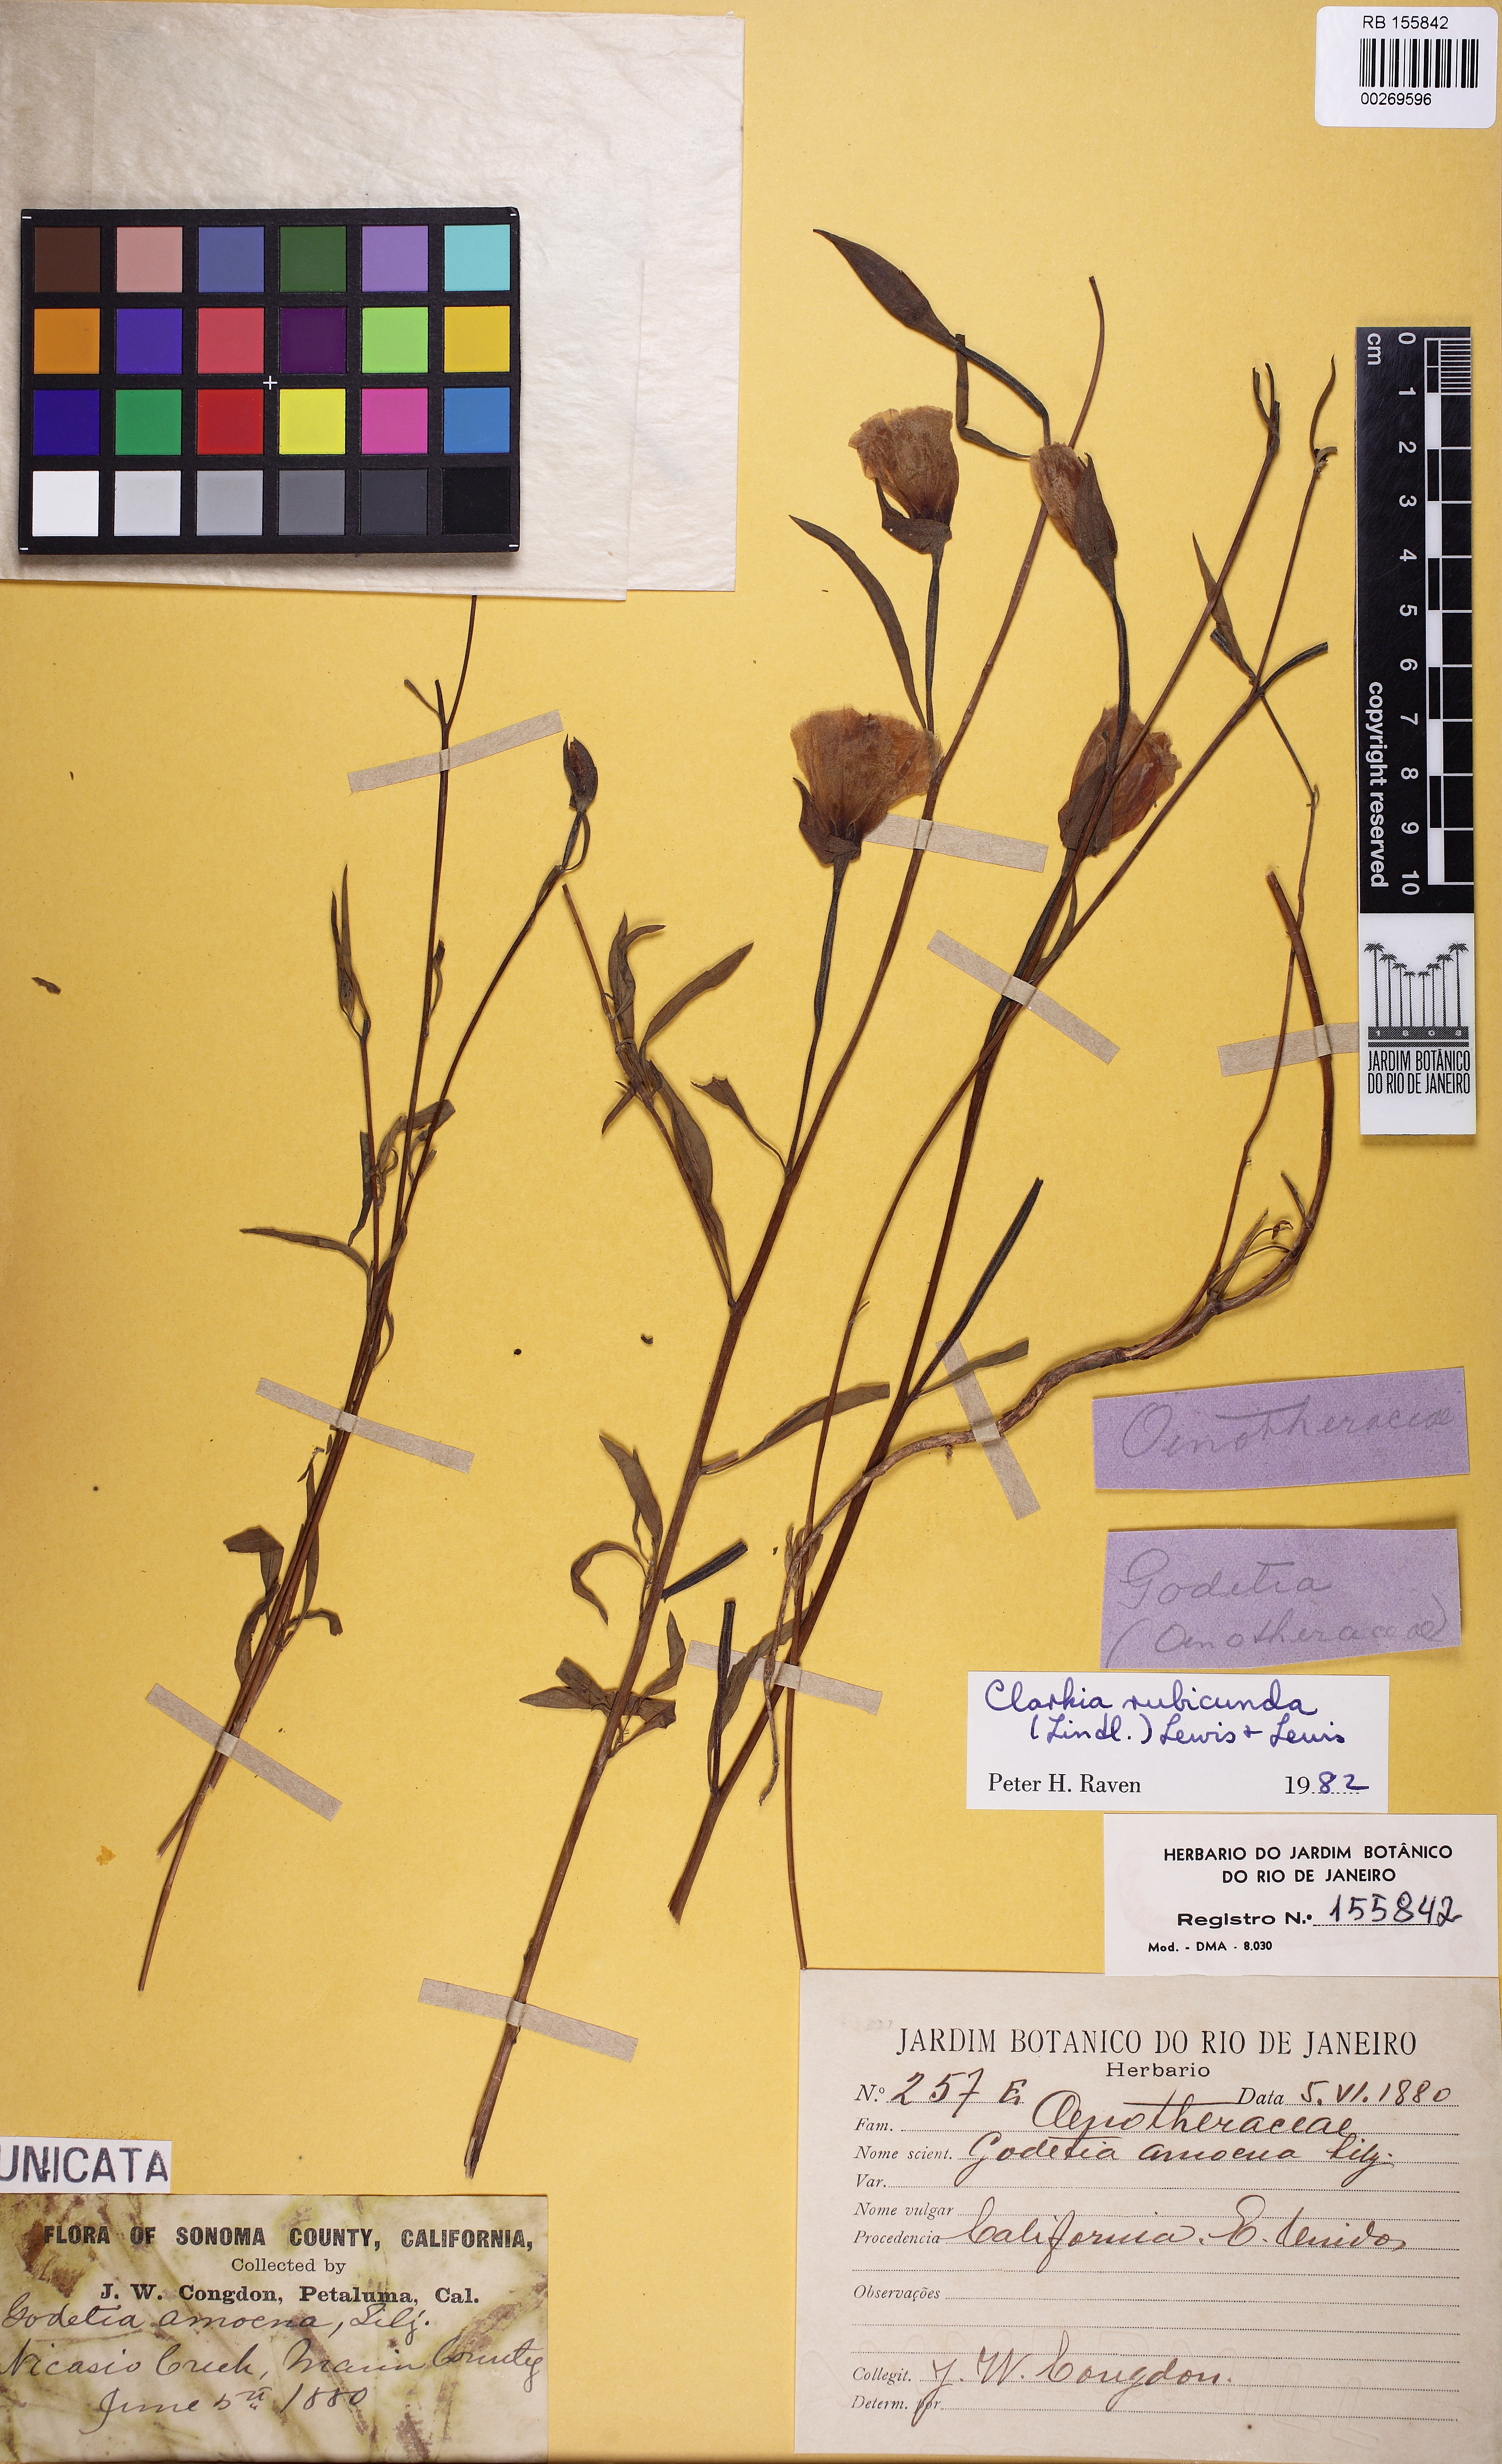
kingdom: Plantae
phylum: Tracheophyta
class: Magnoliopsida
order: Myrtales
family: Onagraceae
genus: Clarkia
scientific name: Clarkia rubicunda
